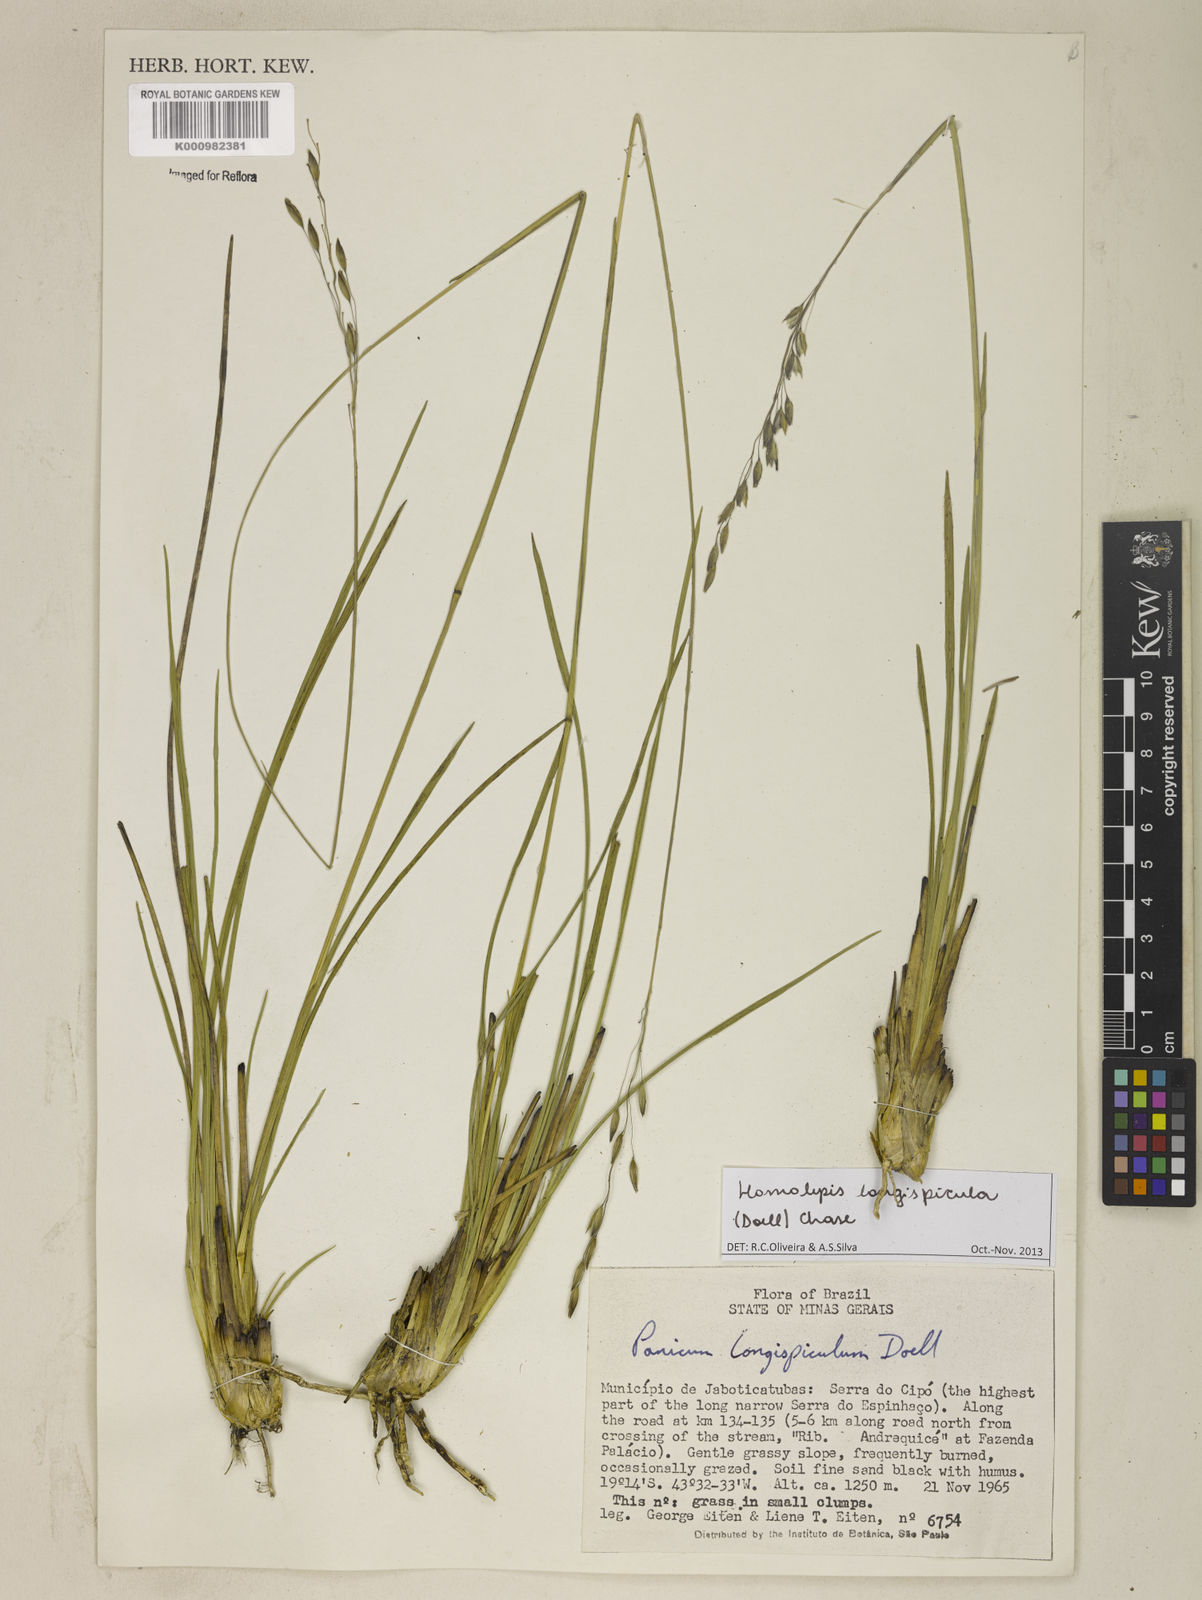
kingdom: Plantae
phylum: Tracheophyta
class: Liliopsida
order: Poales
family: Poaceae
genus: Homolepis
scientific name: Homolepis
